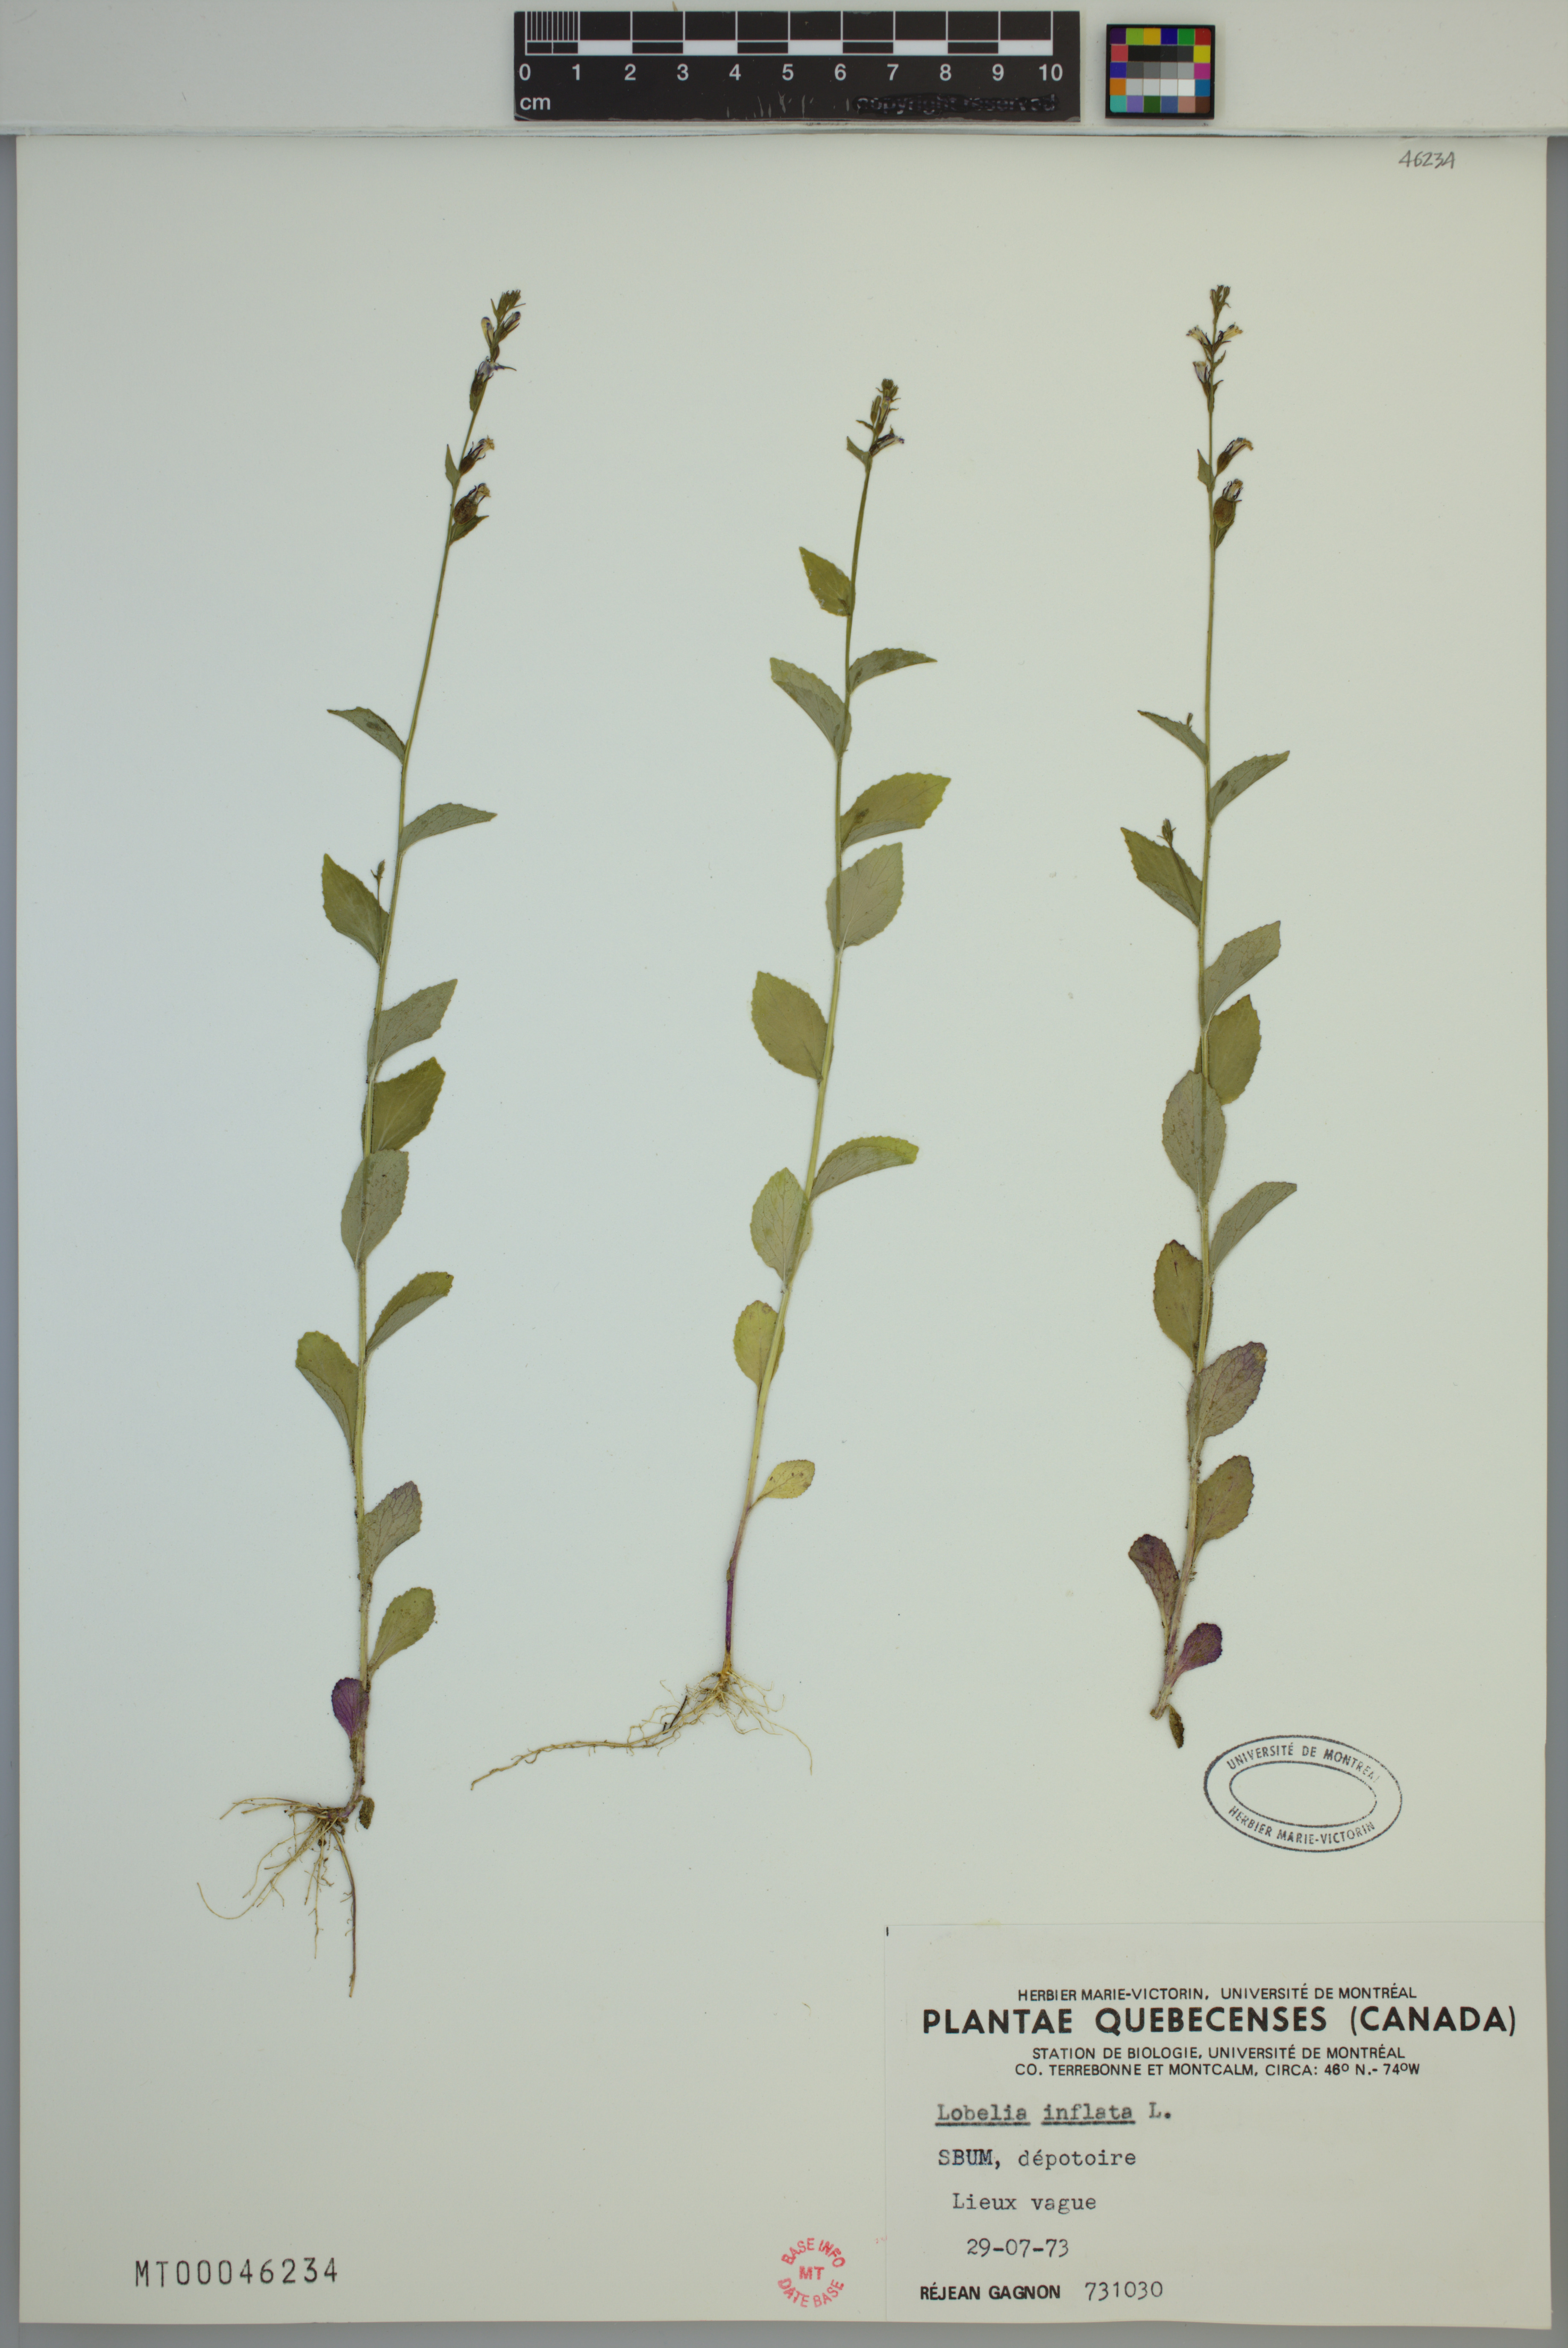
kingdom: Plantae
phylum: Tracheophyta
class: Magnoliopsida
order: Asterales
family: Campanulaceae
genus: Lobelia
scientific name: Lobelia inflata
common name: Indian tobacco
